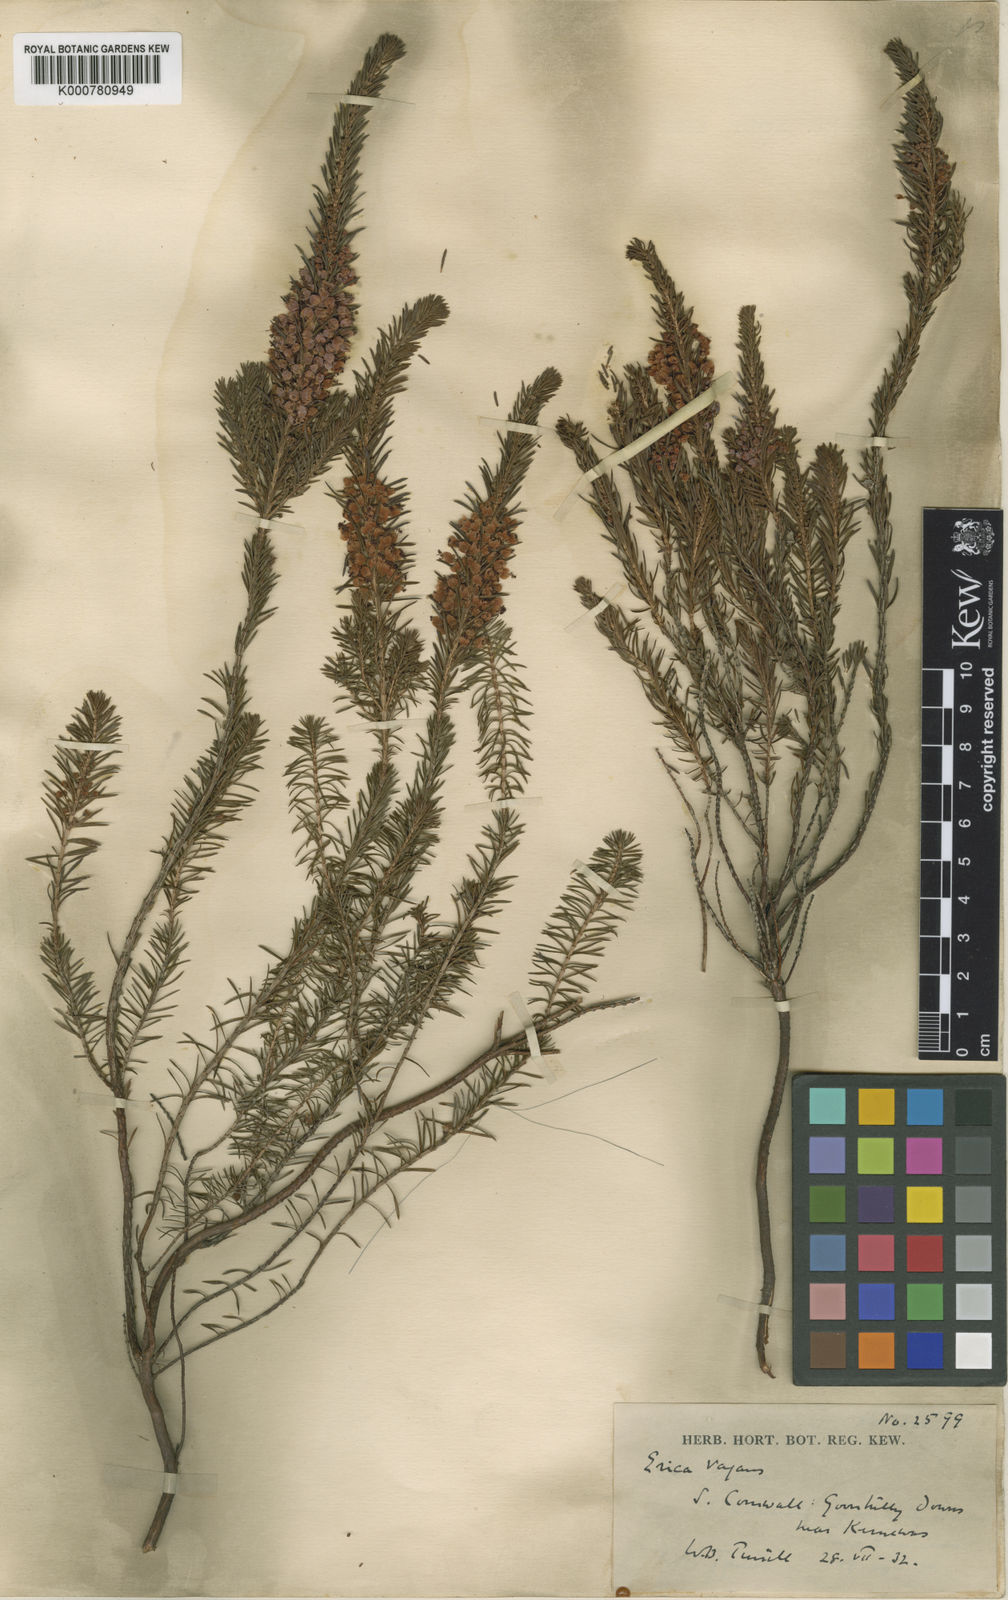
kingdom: Plantae
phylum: Tracheophyta
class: Magnoliopsida
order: Ericales
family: Ericaceae
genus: Erica
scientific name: Erica vagans
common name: Cornish heath
